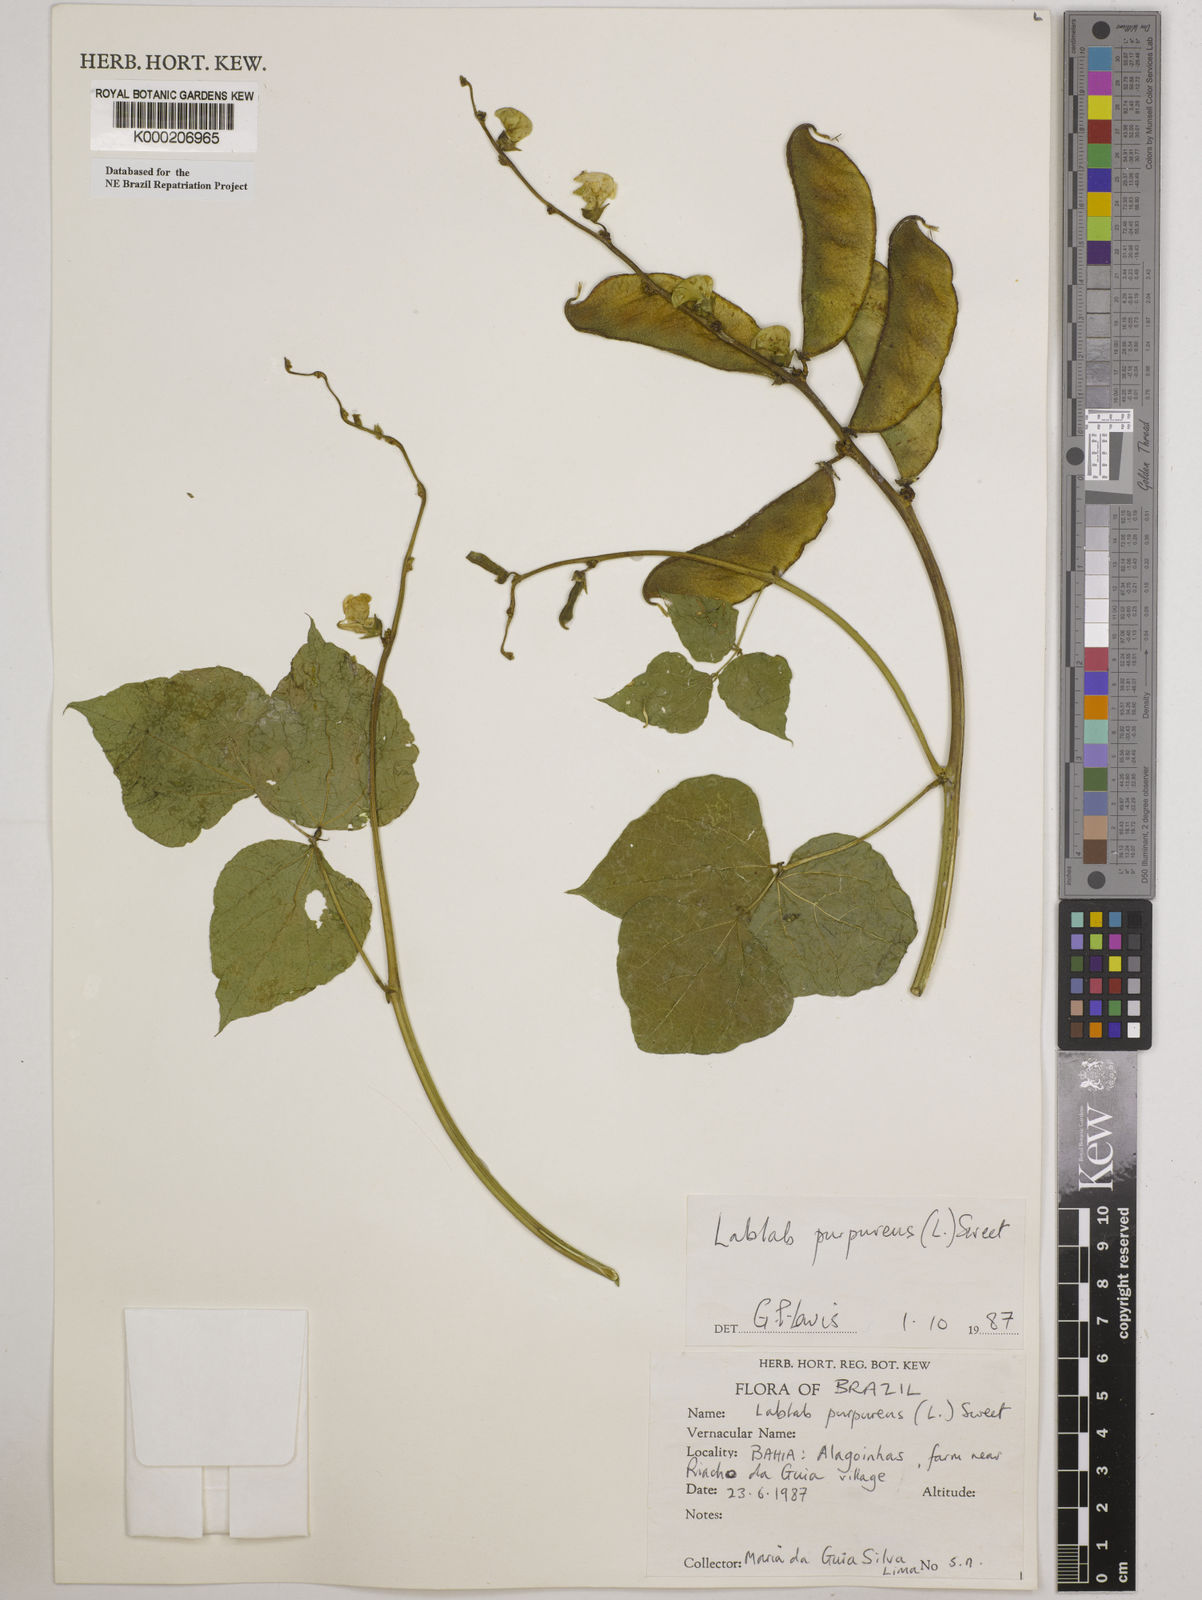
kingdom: Plantae
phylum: Tracheophyta
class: Magnoliopsida
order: Fabales
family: Fabaceae
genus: Lablab
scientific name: Lablab purpureus
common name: Lablab-bean
